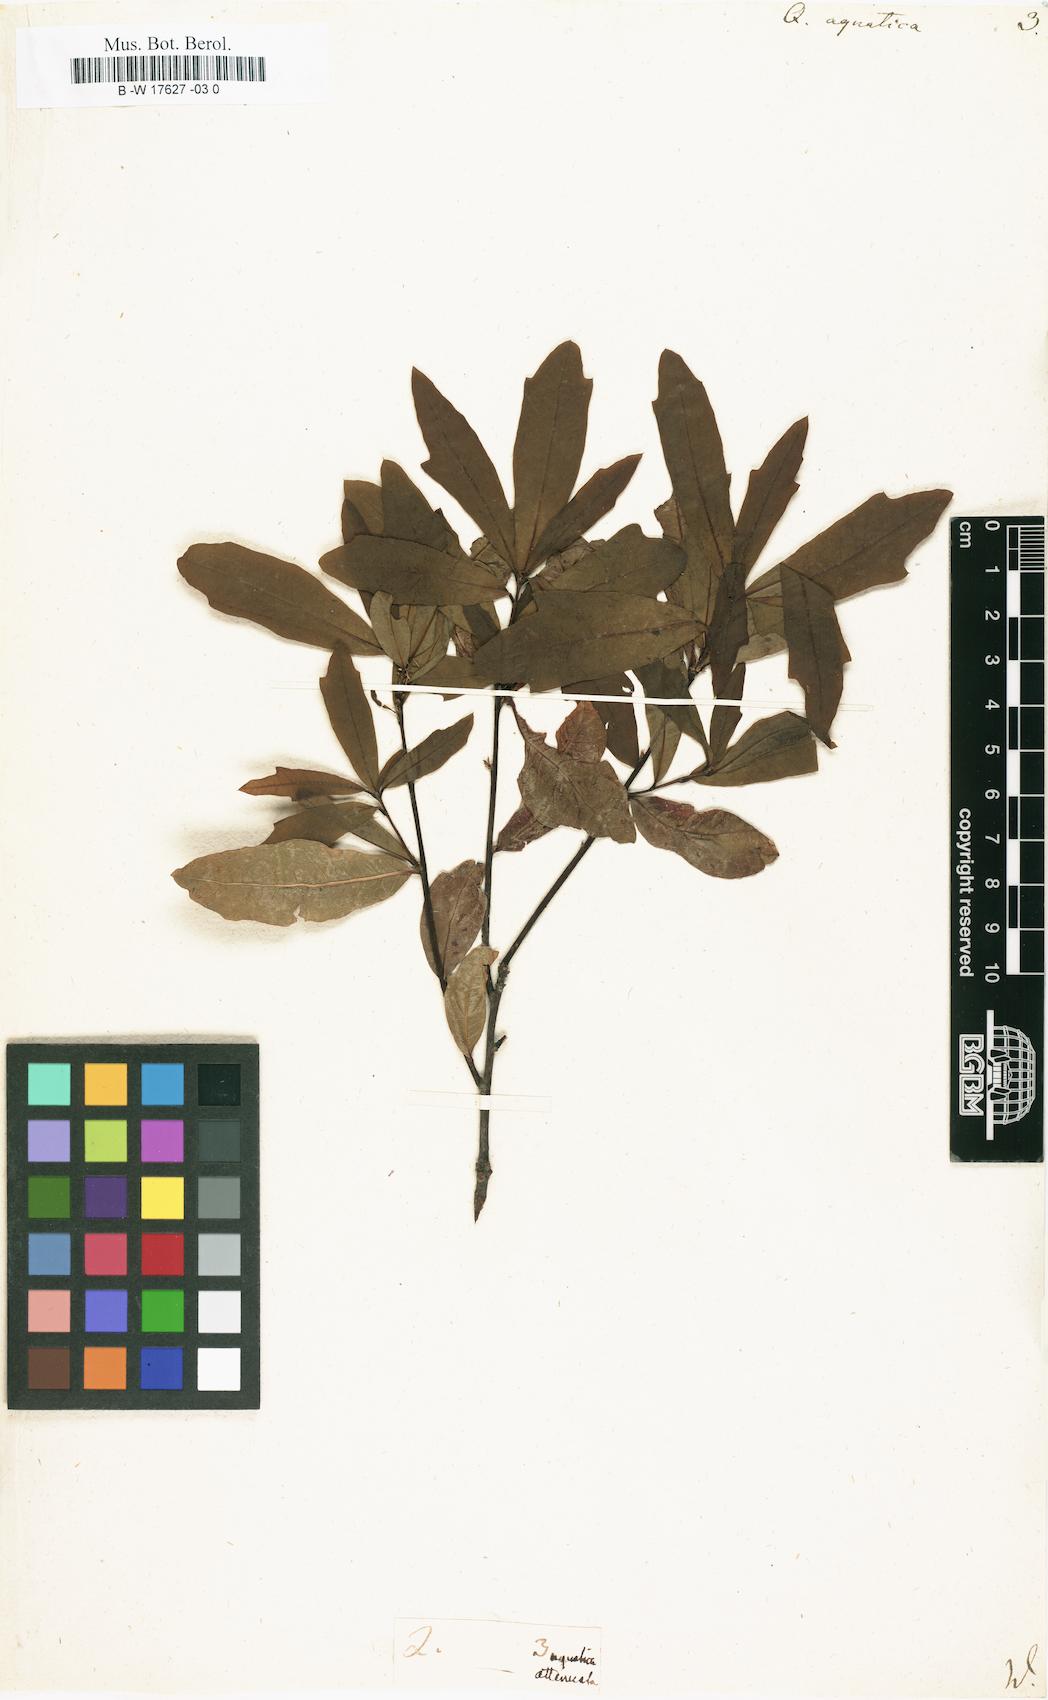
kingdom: Plantae
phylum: Tracheophyta
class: Magnoliopsida
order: Fagales
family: Fagaceae
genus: Quercus
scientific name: Quercus nigra
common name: Water oak
